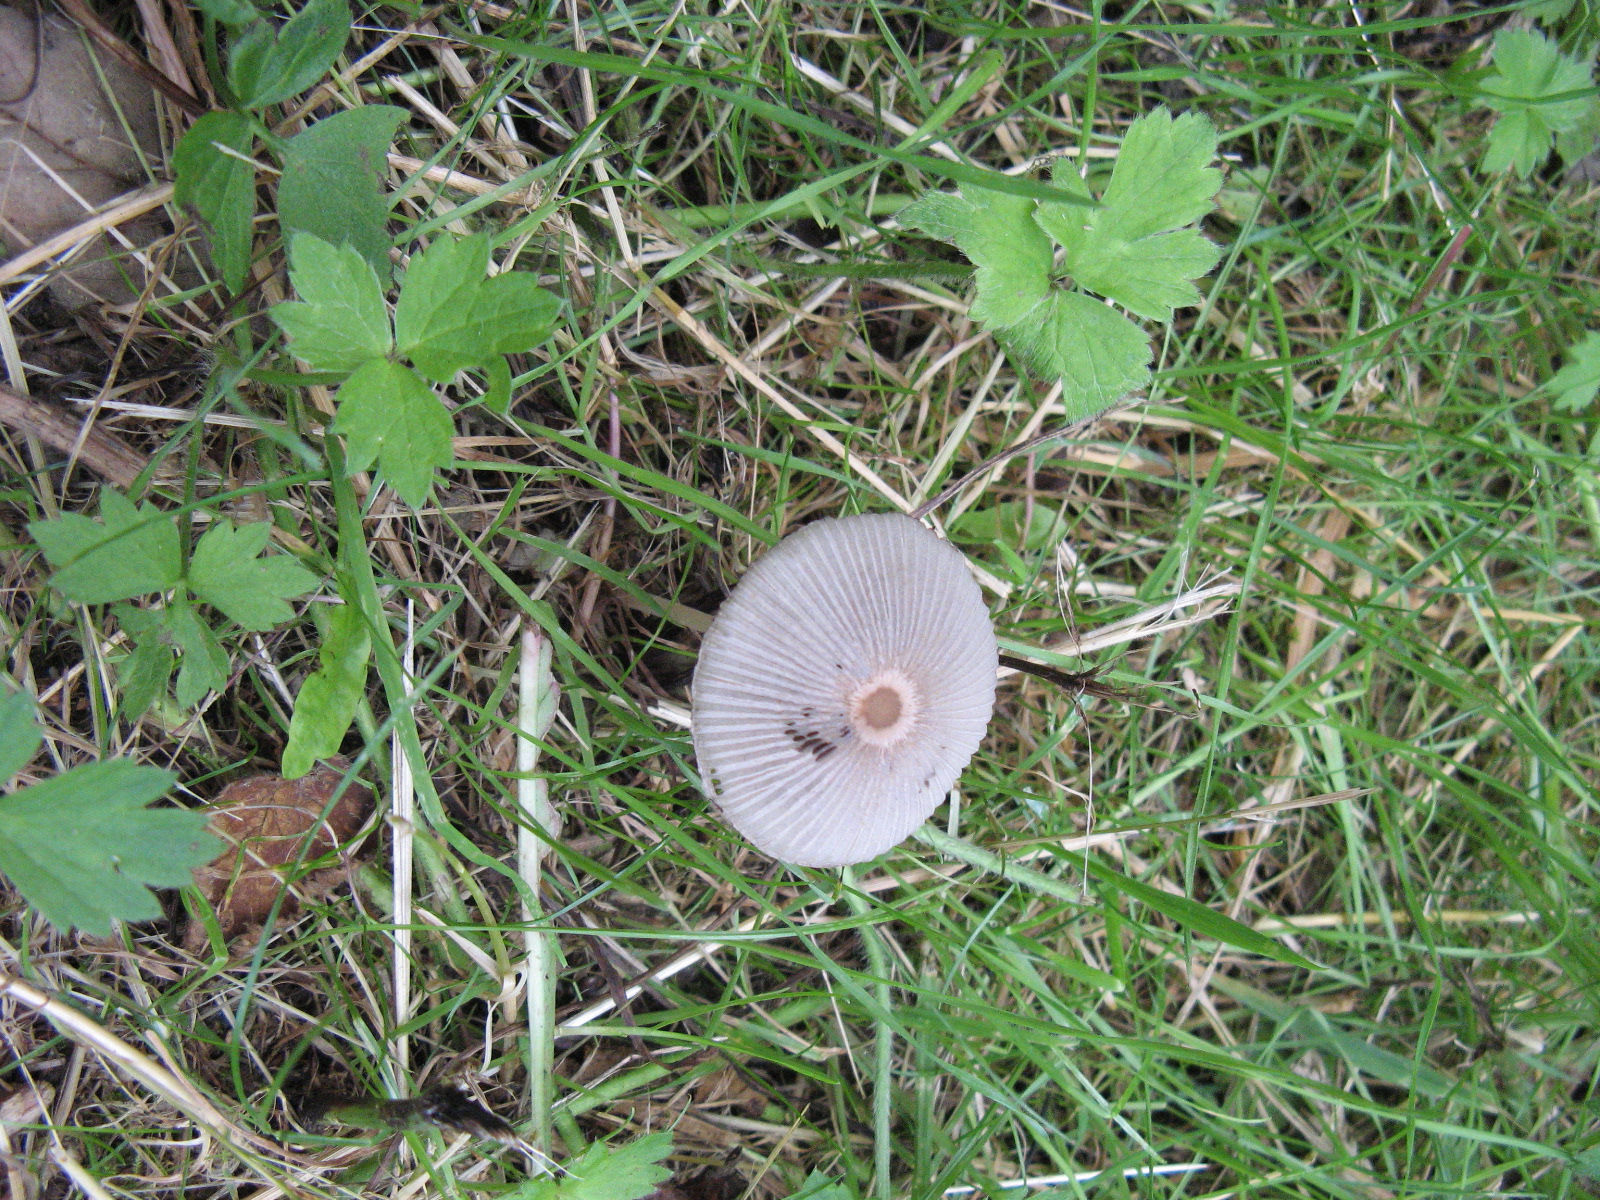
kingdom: Fungi
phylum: Basidiomycota
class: Agaricomycetes
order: Agaricales
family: Psathyrellaceae
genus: Parasola
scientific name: Parasola
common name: hjulhat
